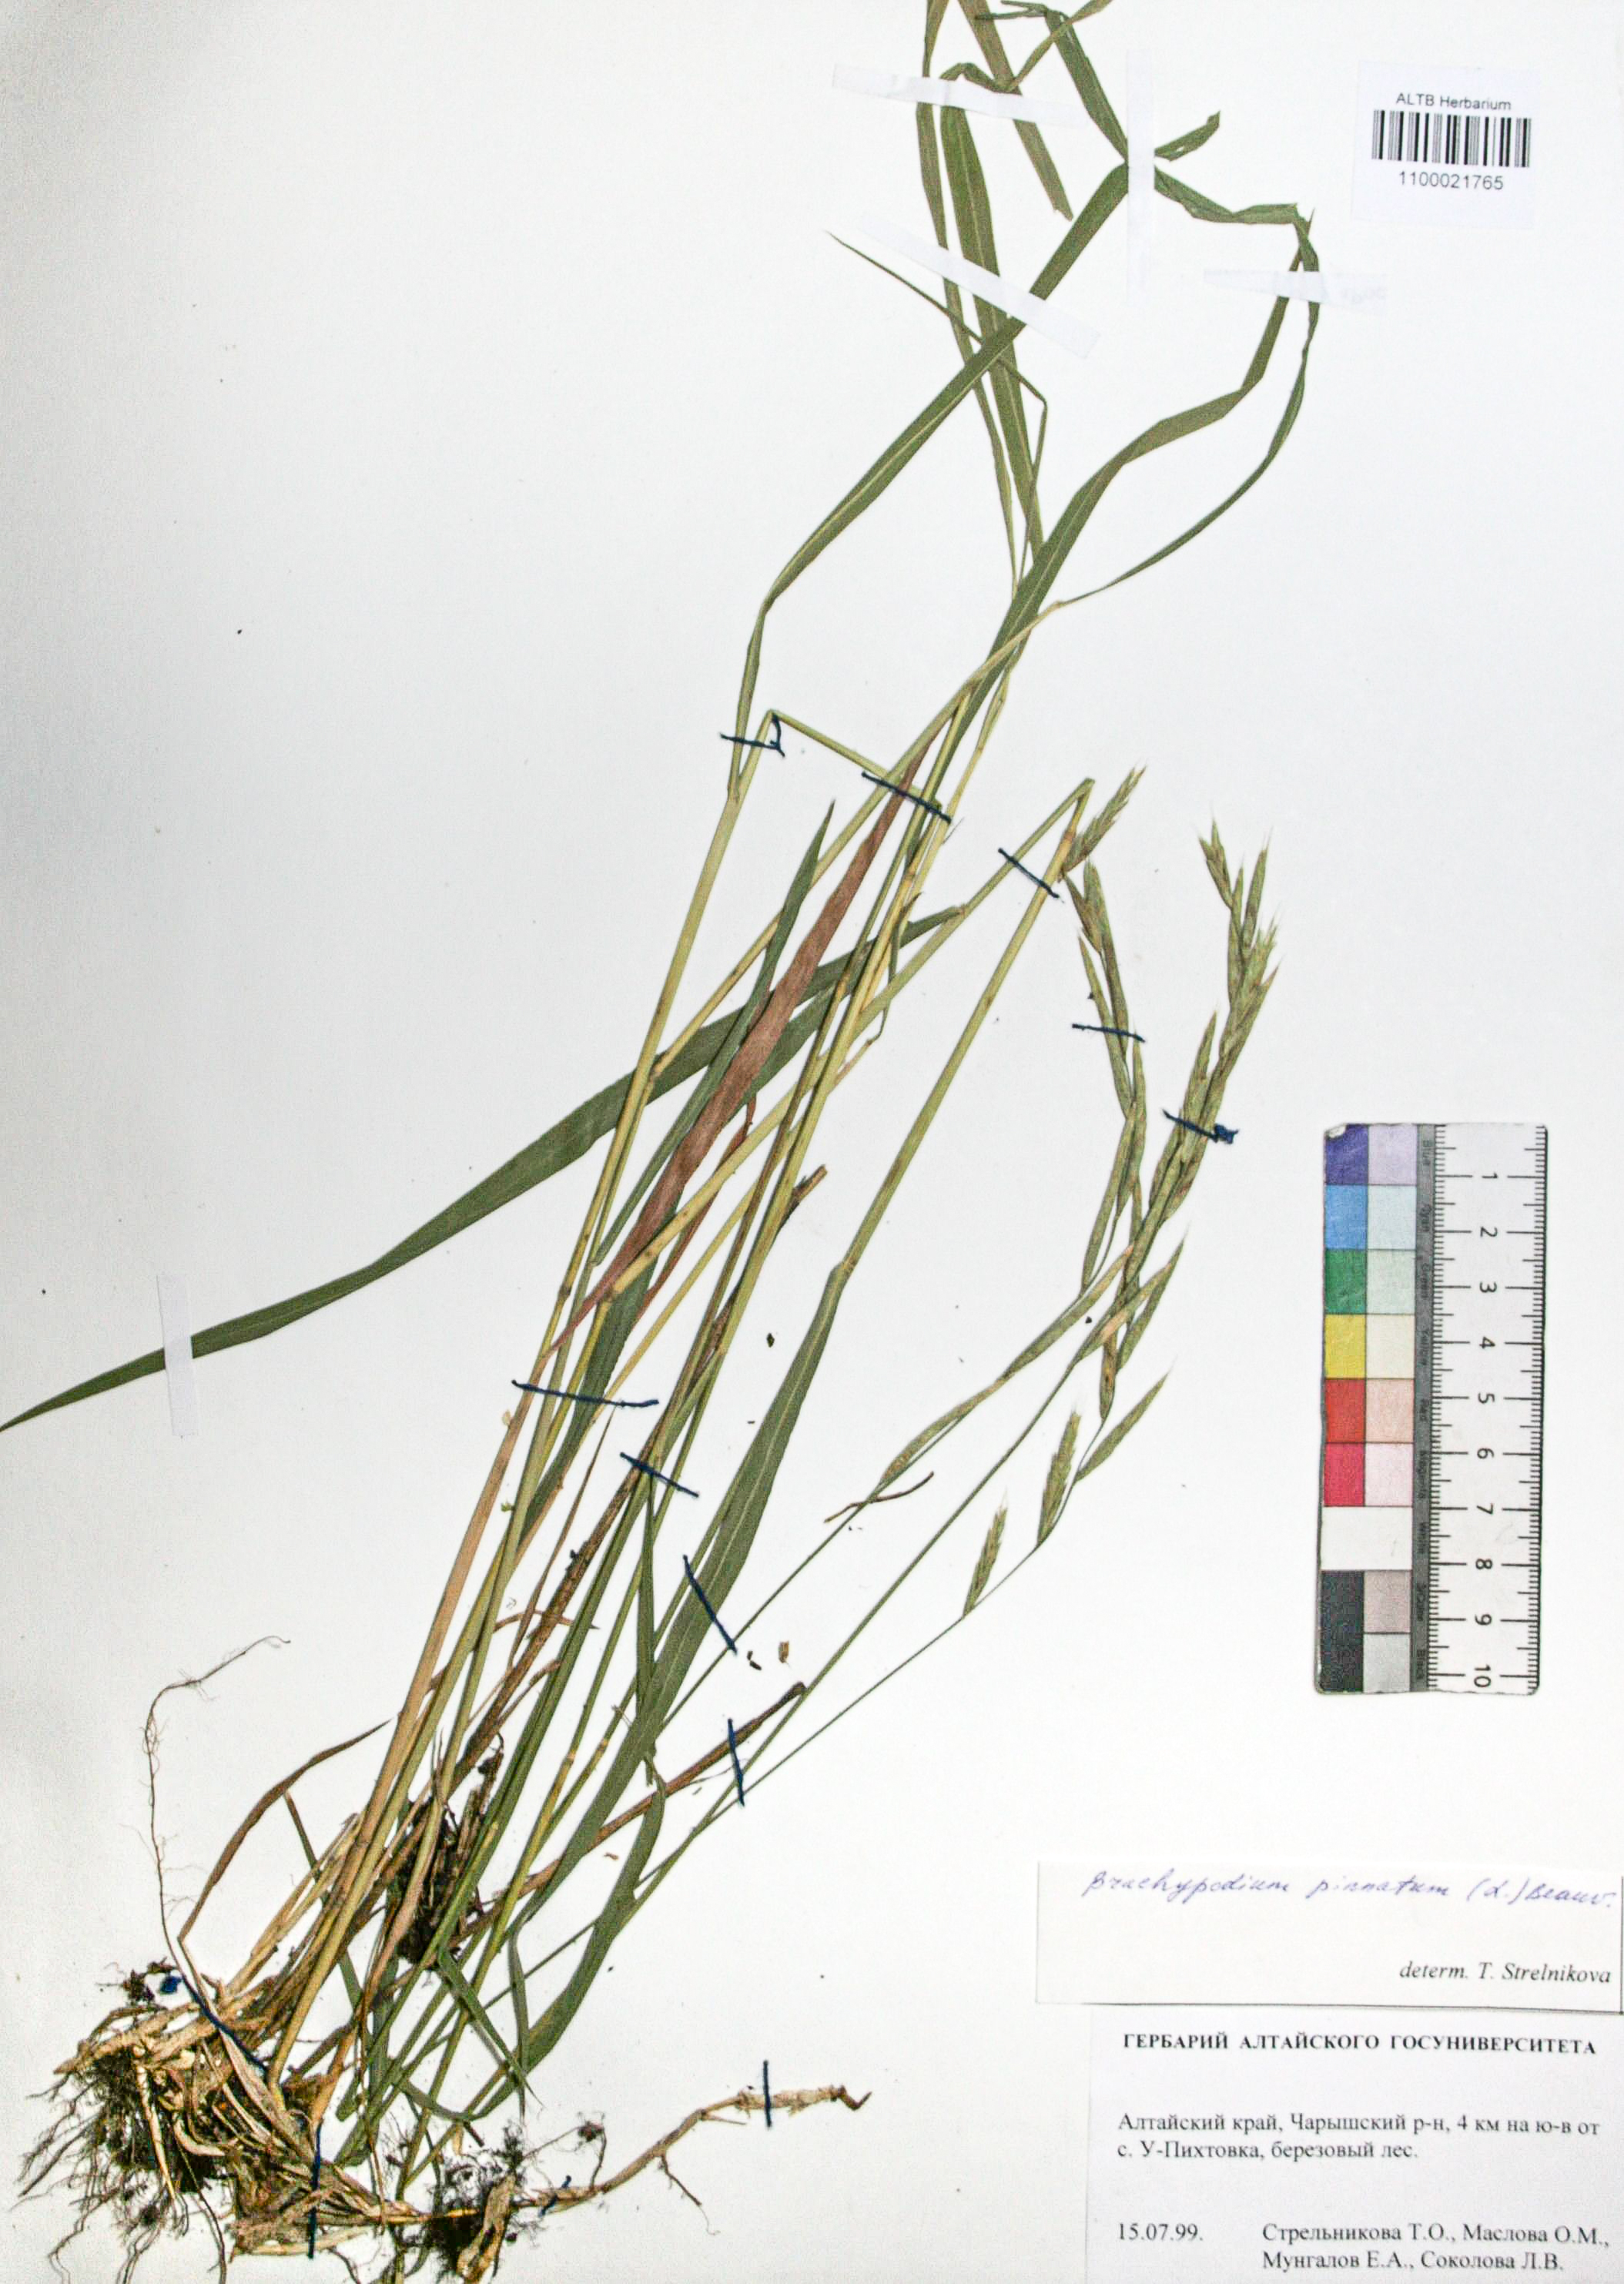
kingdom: Plantae
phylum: Tracheophyta
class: Liliopsida
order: Poales
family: Poaceae
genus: Deschampsia
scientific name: Deschampsia cespitosa
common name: Tufted hair-grass
